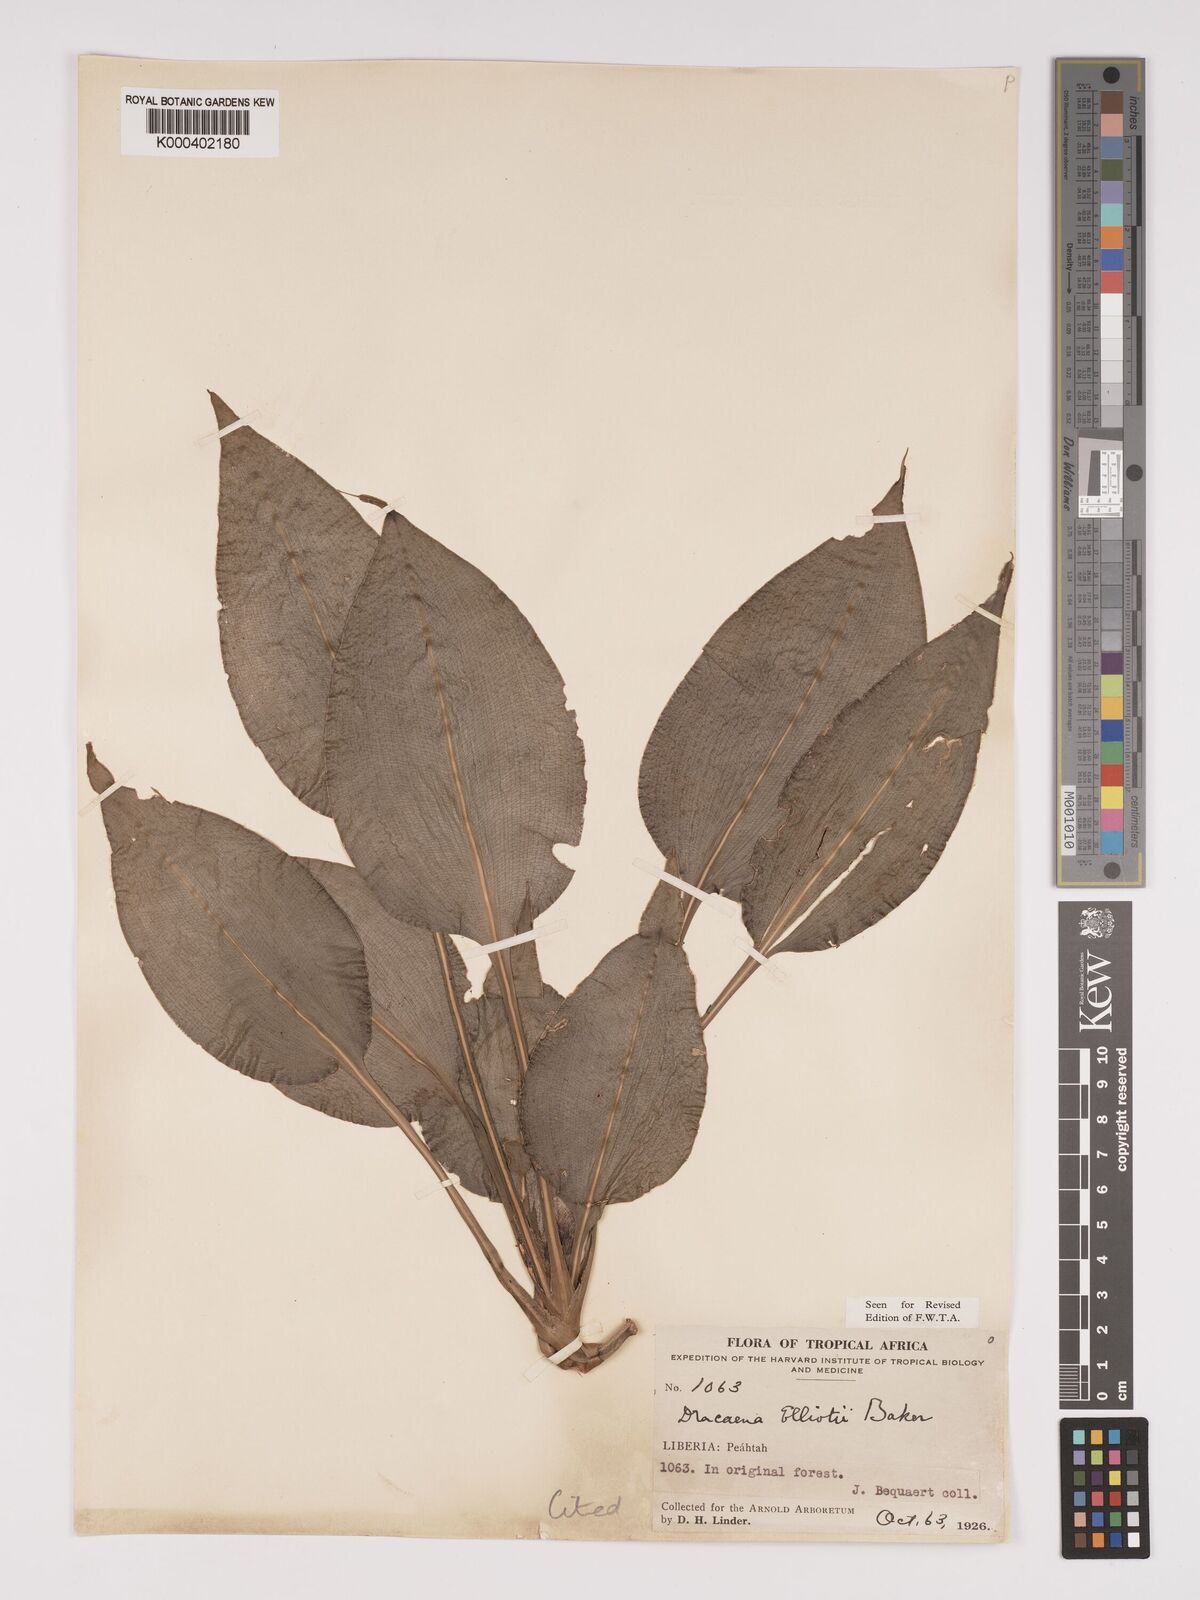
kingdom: Plantae
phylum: Tracheophyta
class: Liliopsida
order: Asparagales
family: Asparagaceae
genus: Dracaena
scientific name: Dracaena cristula
